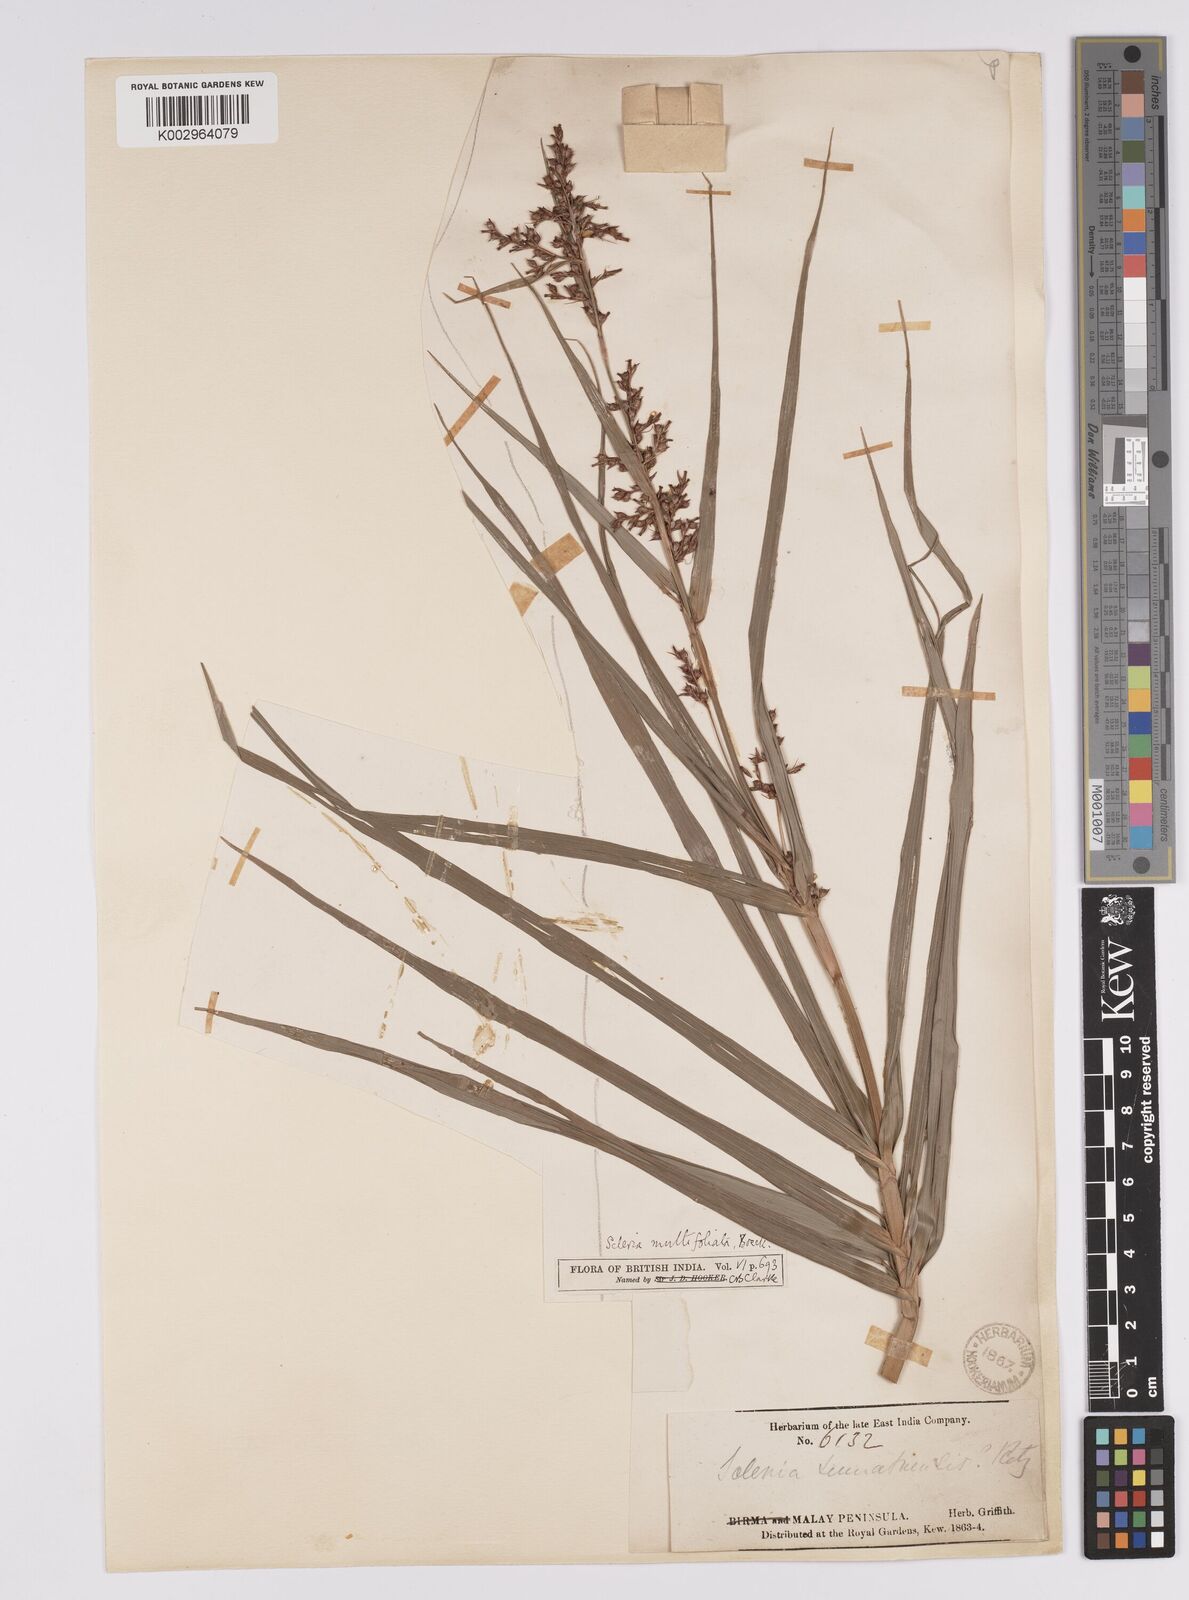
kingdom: Plantae
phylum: Tracheophyta
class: Liliopsida
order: Poales
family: Cyperaceae
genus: Scleria
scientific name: Scleria purpurascens
